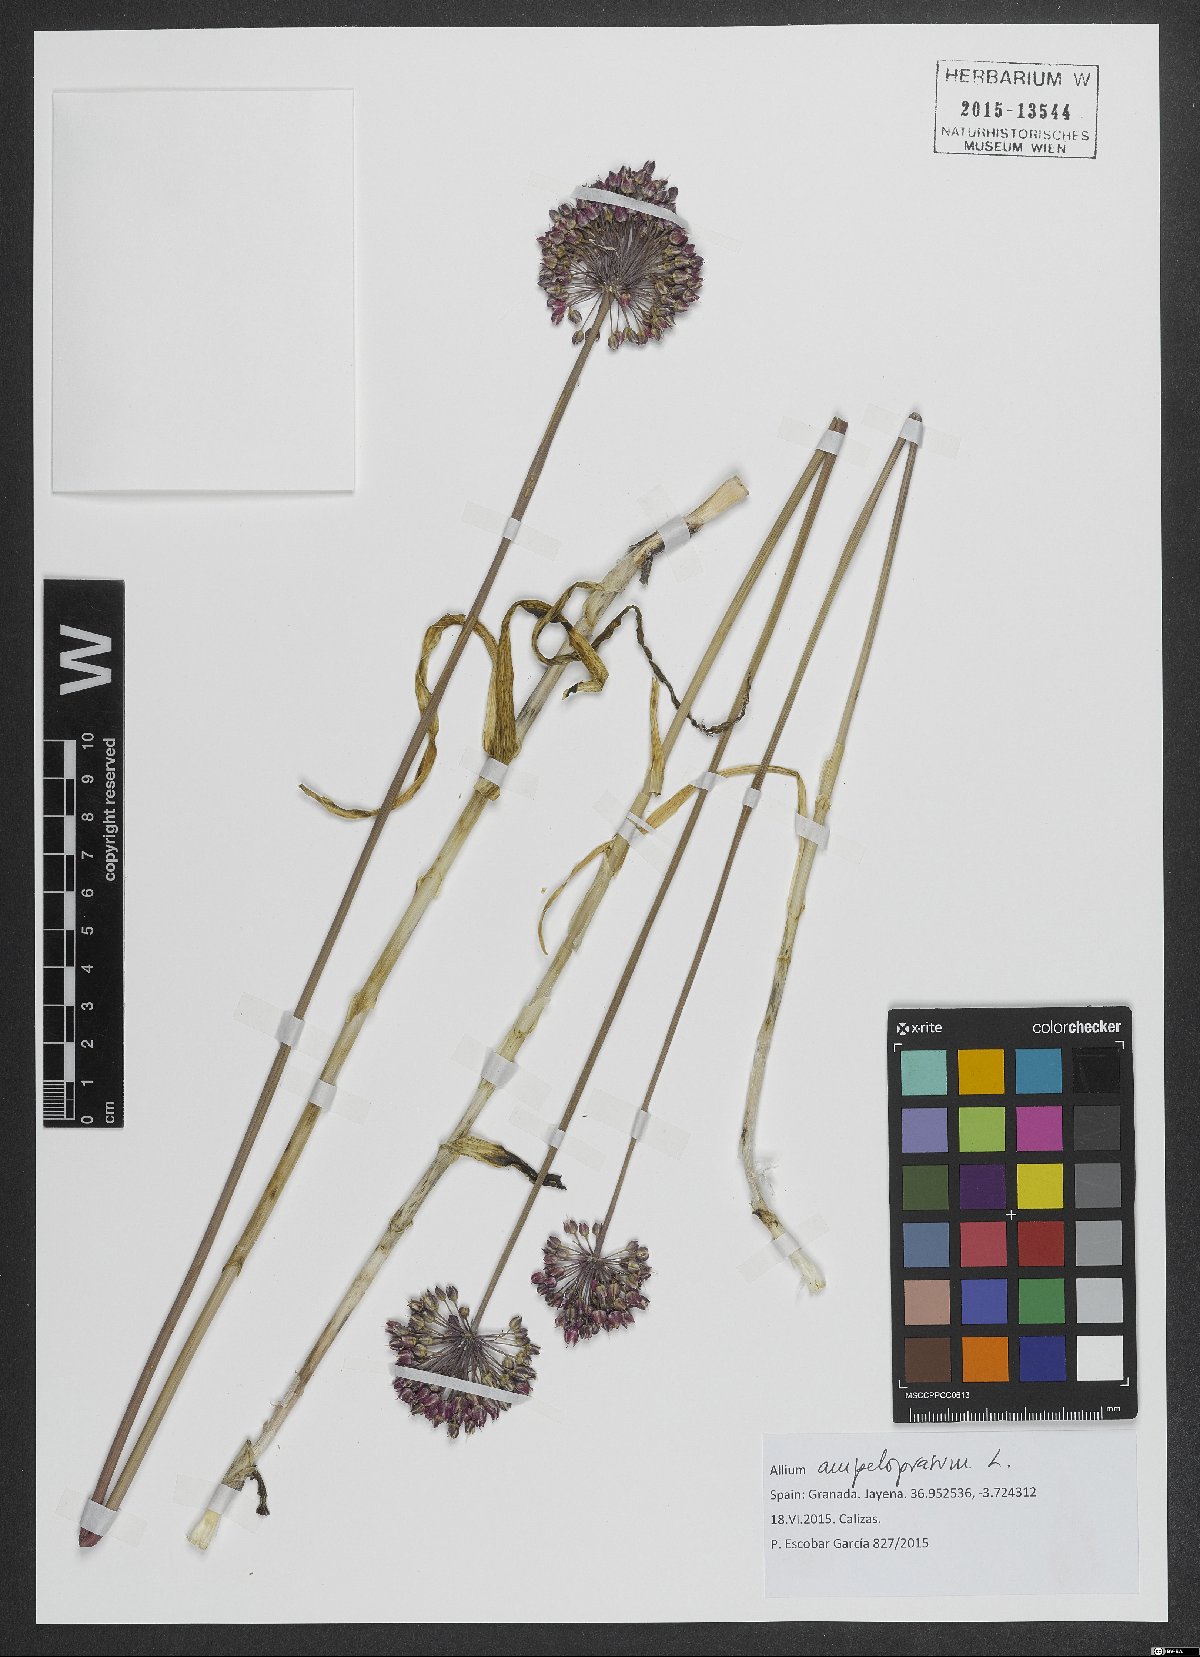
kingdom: Plantae
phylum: Tracheophyta
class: Liliopsida
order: Asparagales
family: Amaryllidaceae
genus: Allium
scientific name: Allium ampeloprasum
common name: Wild leek
